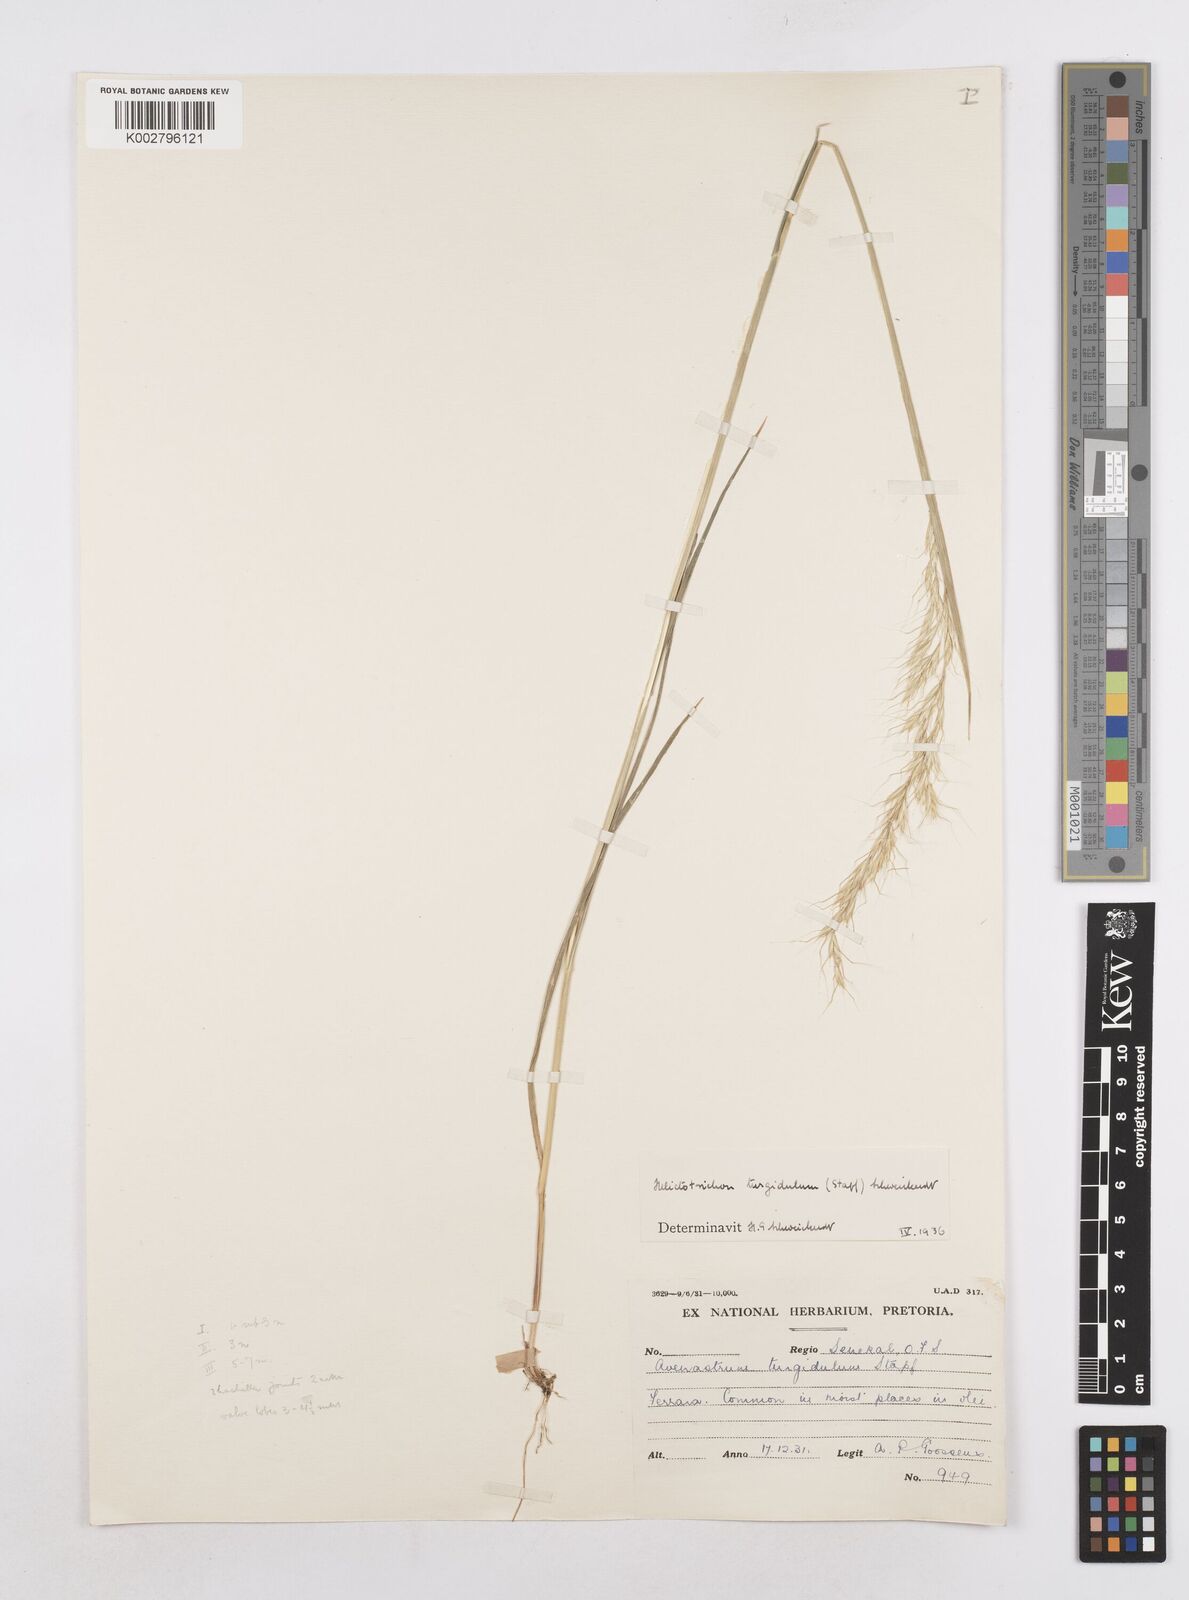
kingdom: Plantae
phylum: Tracheophyta
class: Liliopsida
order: Poales
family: Poaceae
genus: Trisetopsis
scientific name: Trisetopsis imberbis
